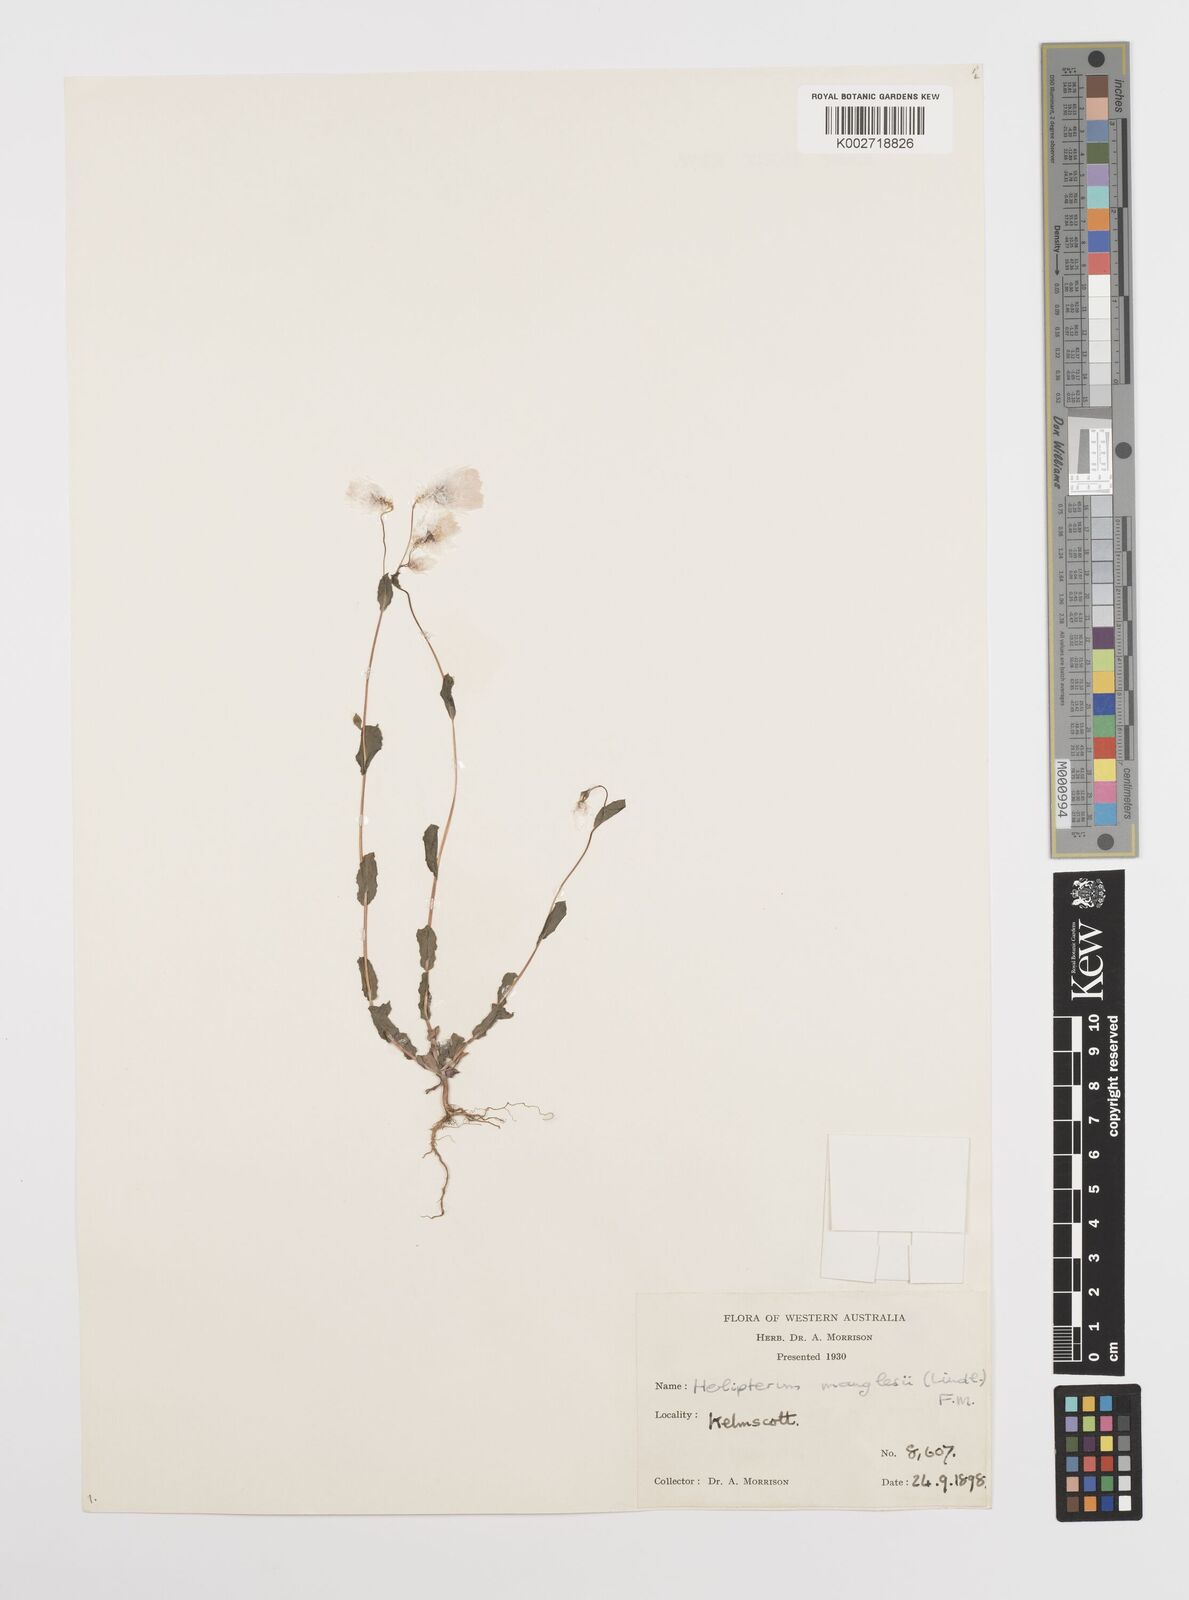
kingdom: Plantae
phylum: Tracheophyta
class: Magnoliopsida
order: Asterales
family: Asteraceae
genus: Rhodanthe
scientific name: Rhodanthe manglesii
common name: Pink sunray
